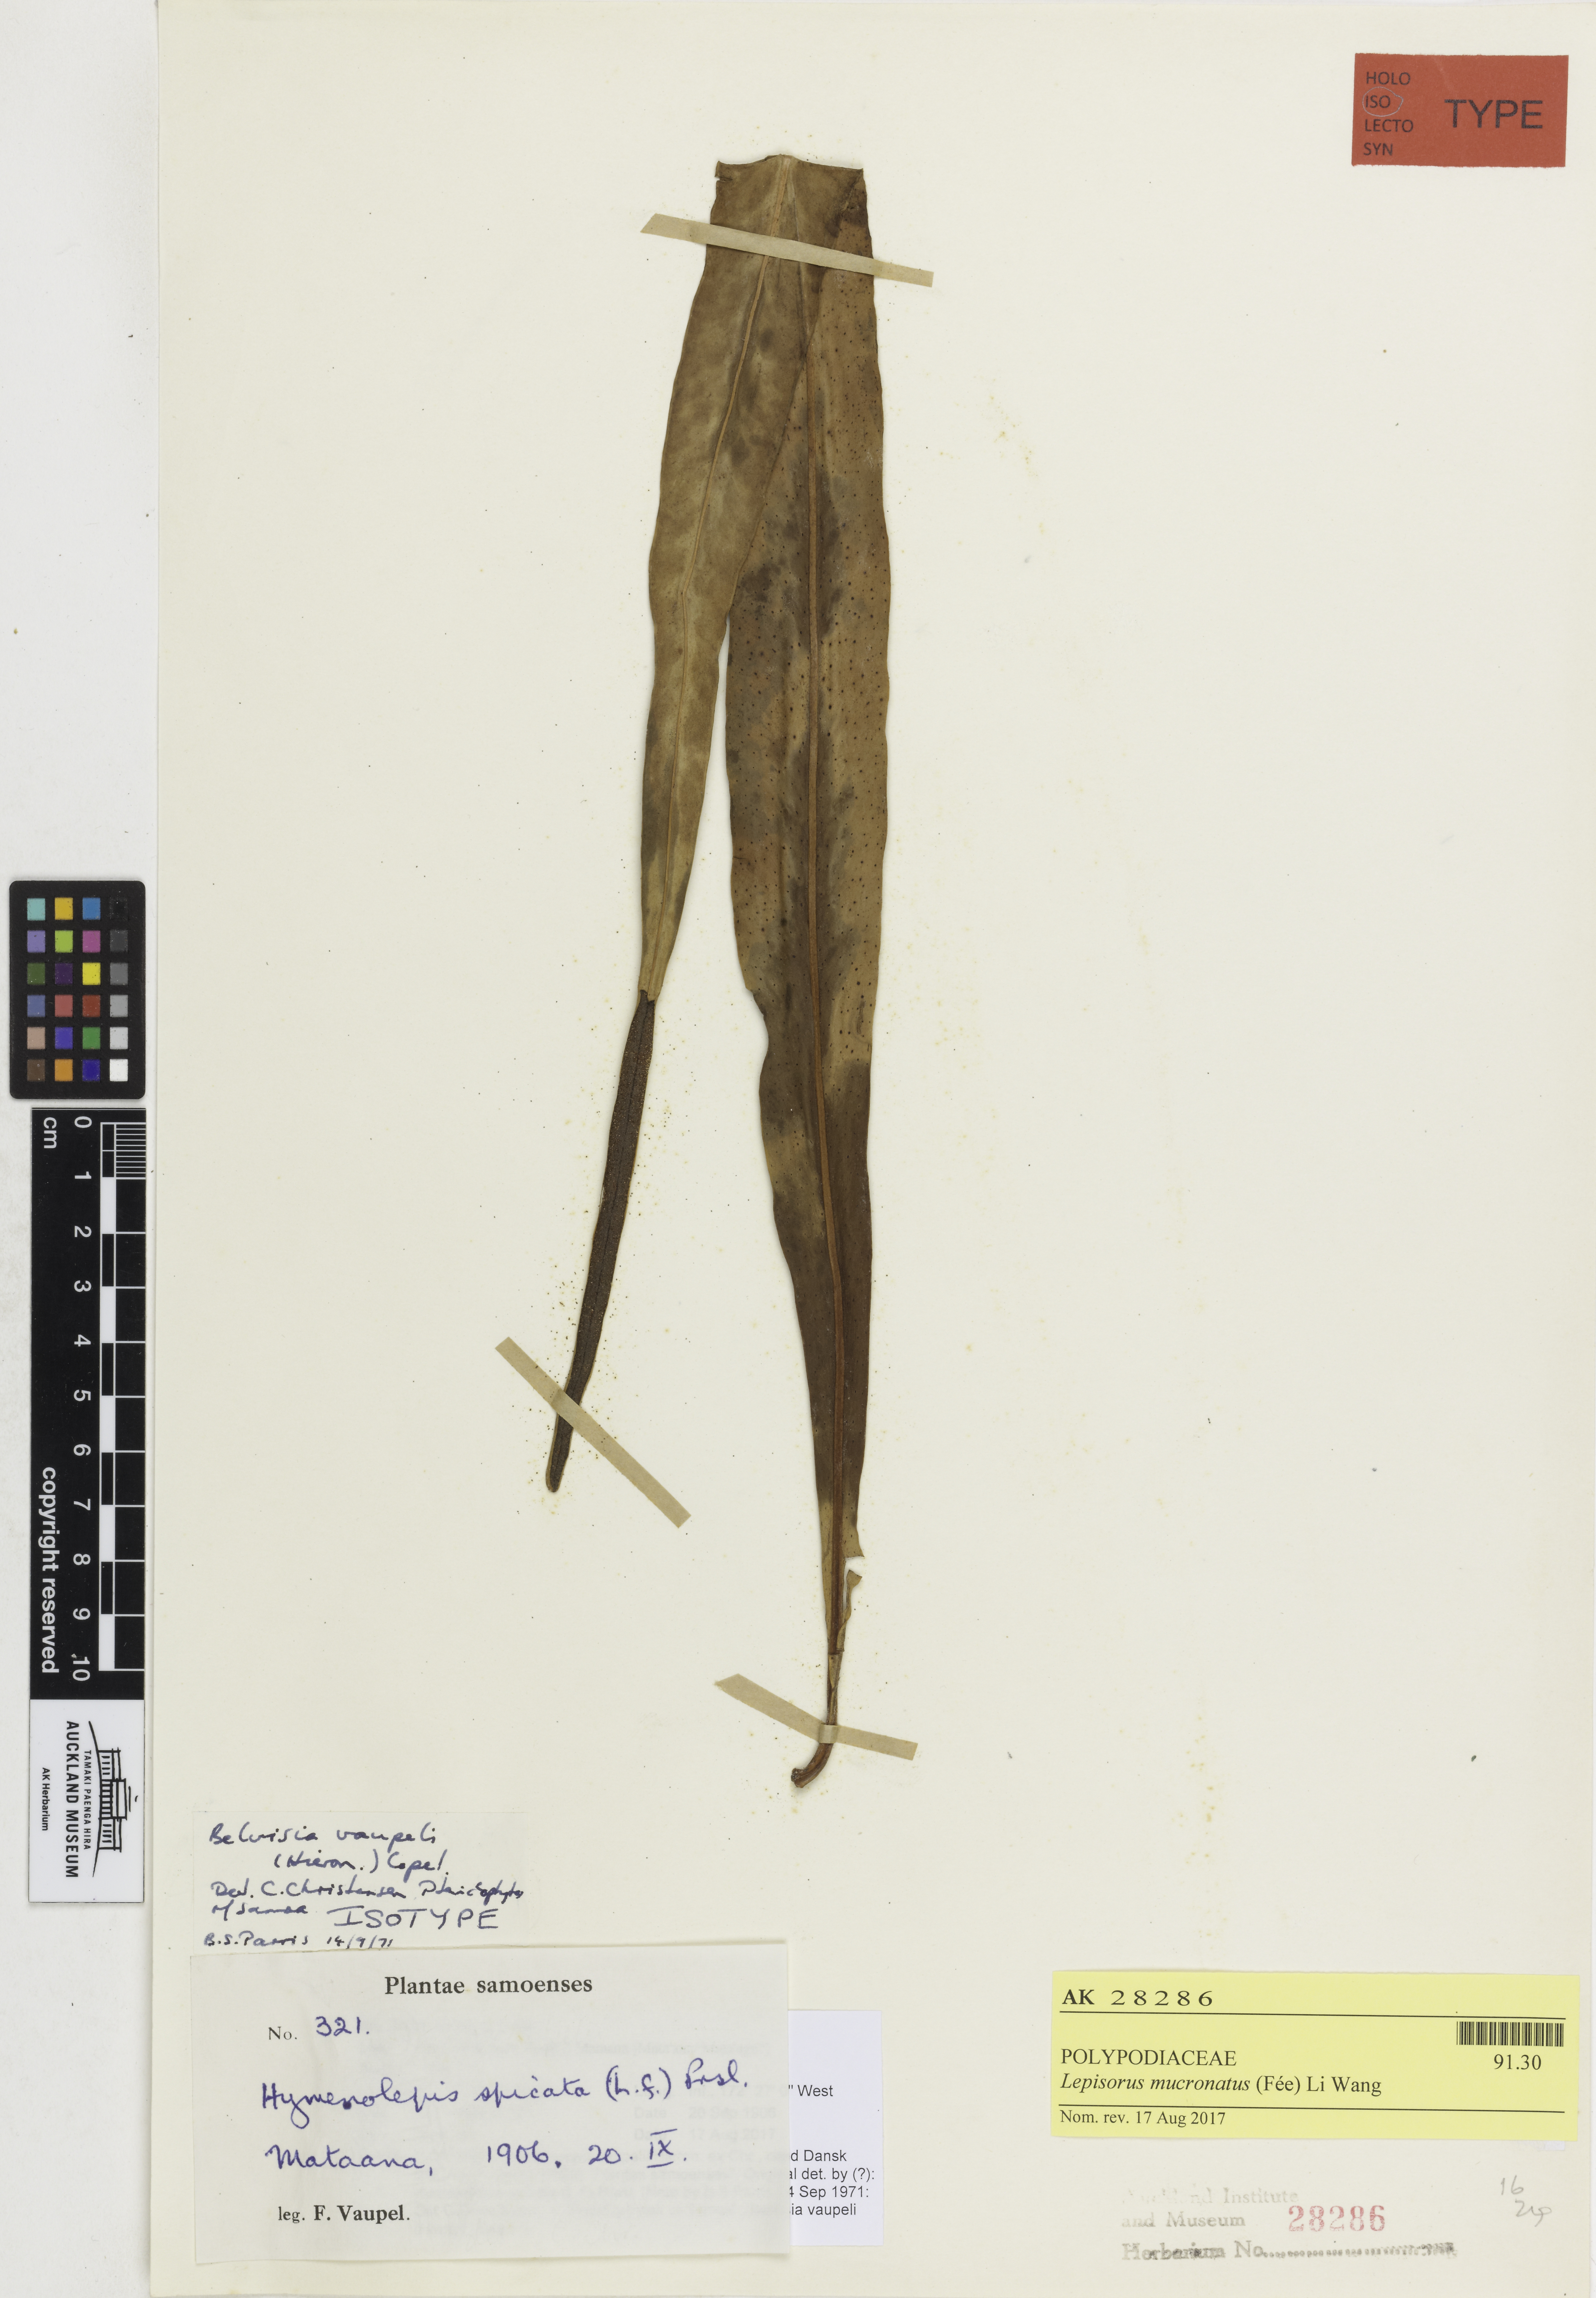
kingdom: Plantae
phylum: Tracheophyta
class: Polypodiopsida
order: Polypodiales
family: Polypodiaceae
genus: Lepisorus
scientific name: Lepisorus mucronatus
